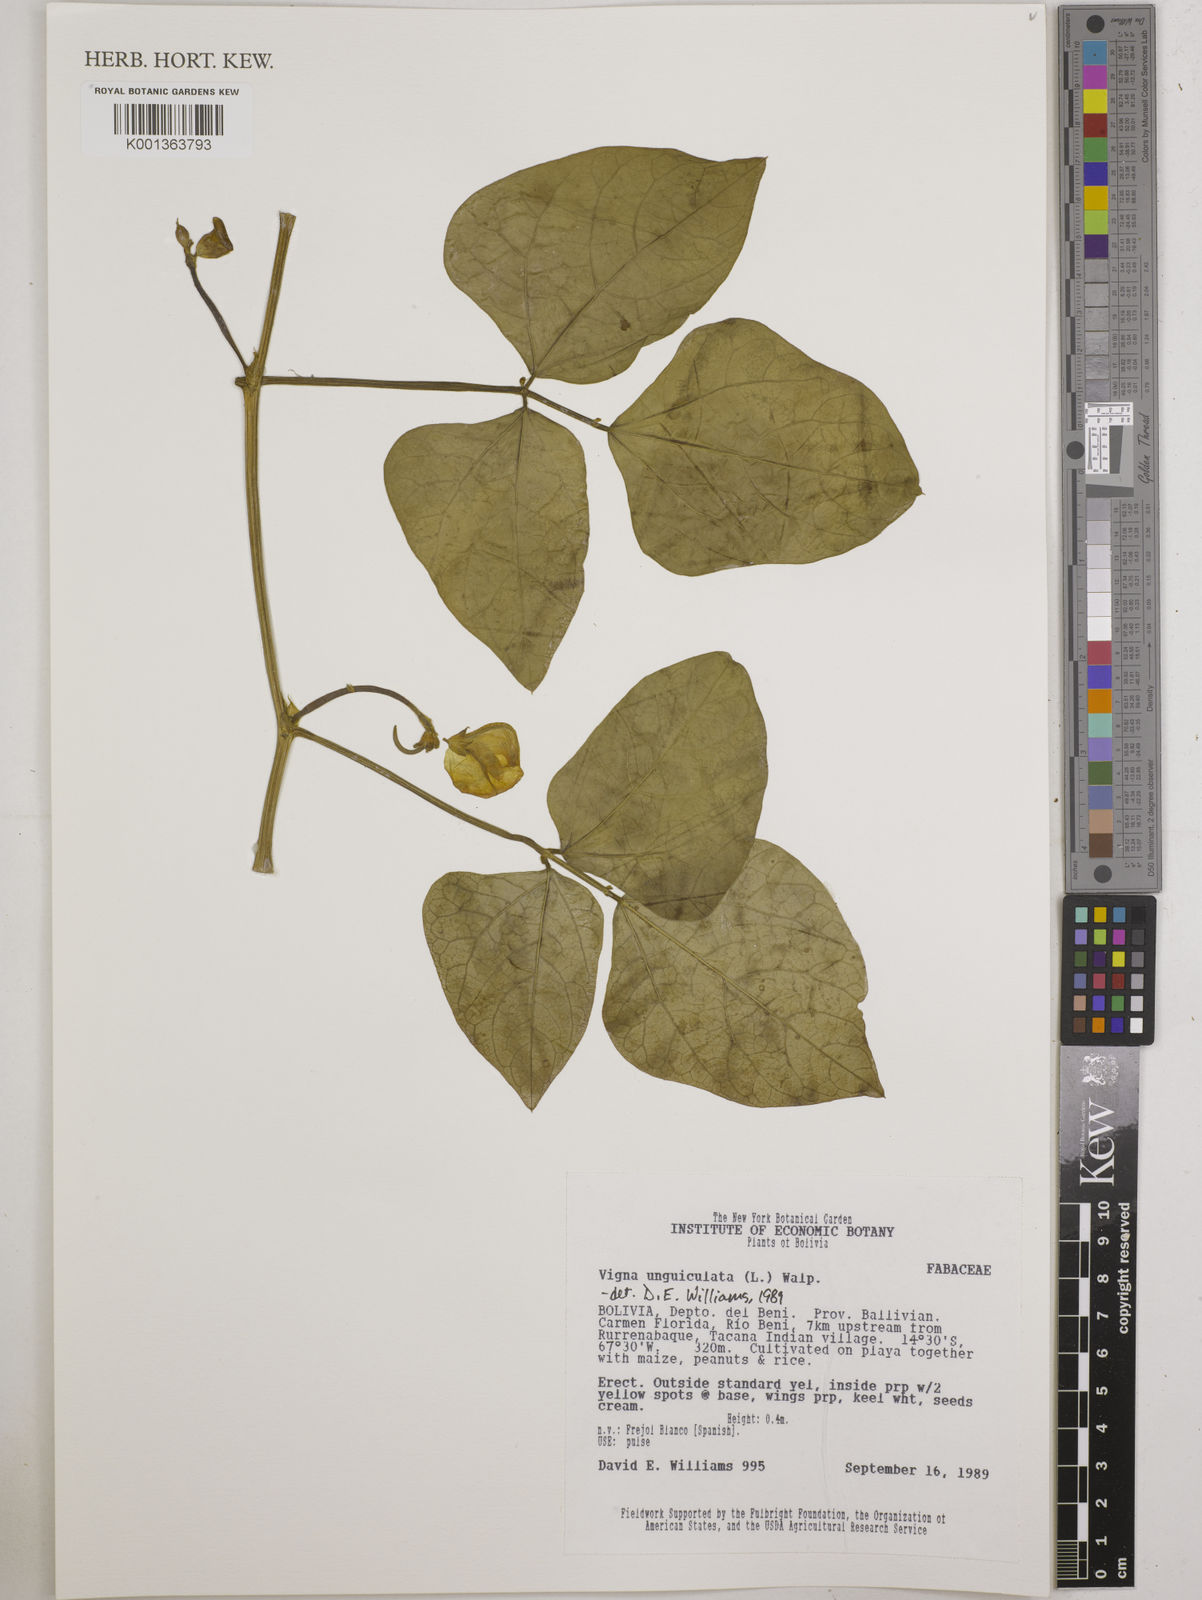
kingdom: Plantae
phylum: Tracheophyta
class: Magnoliopsida
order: Fabales
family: Fabaceae
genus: Vigna
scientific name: Vigna unguiculata
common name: Cowpea
